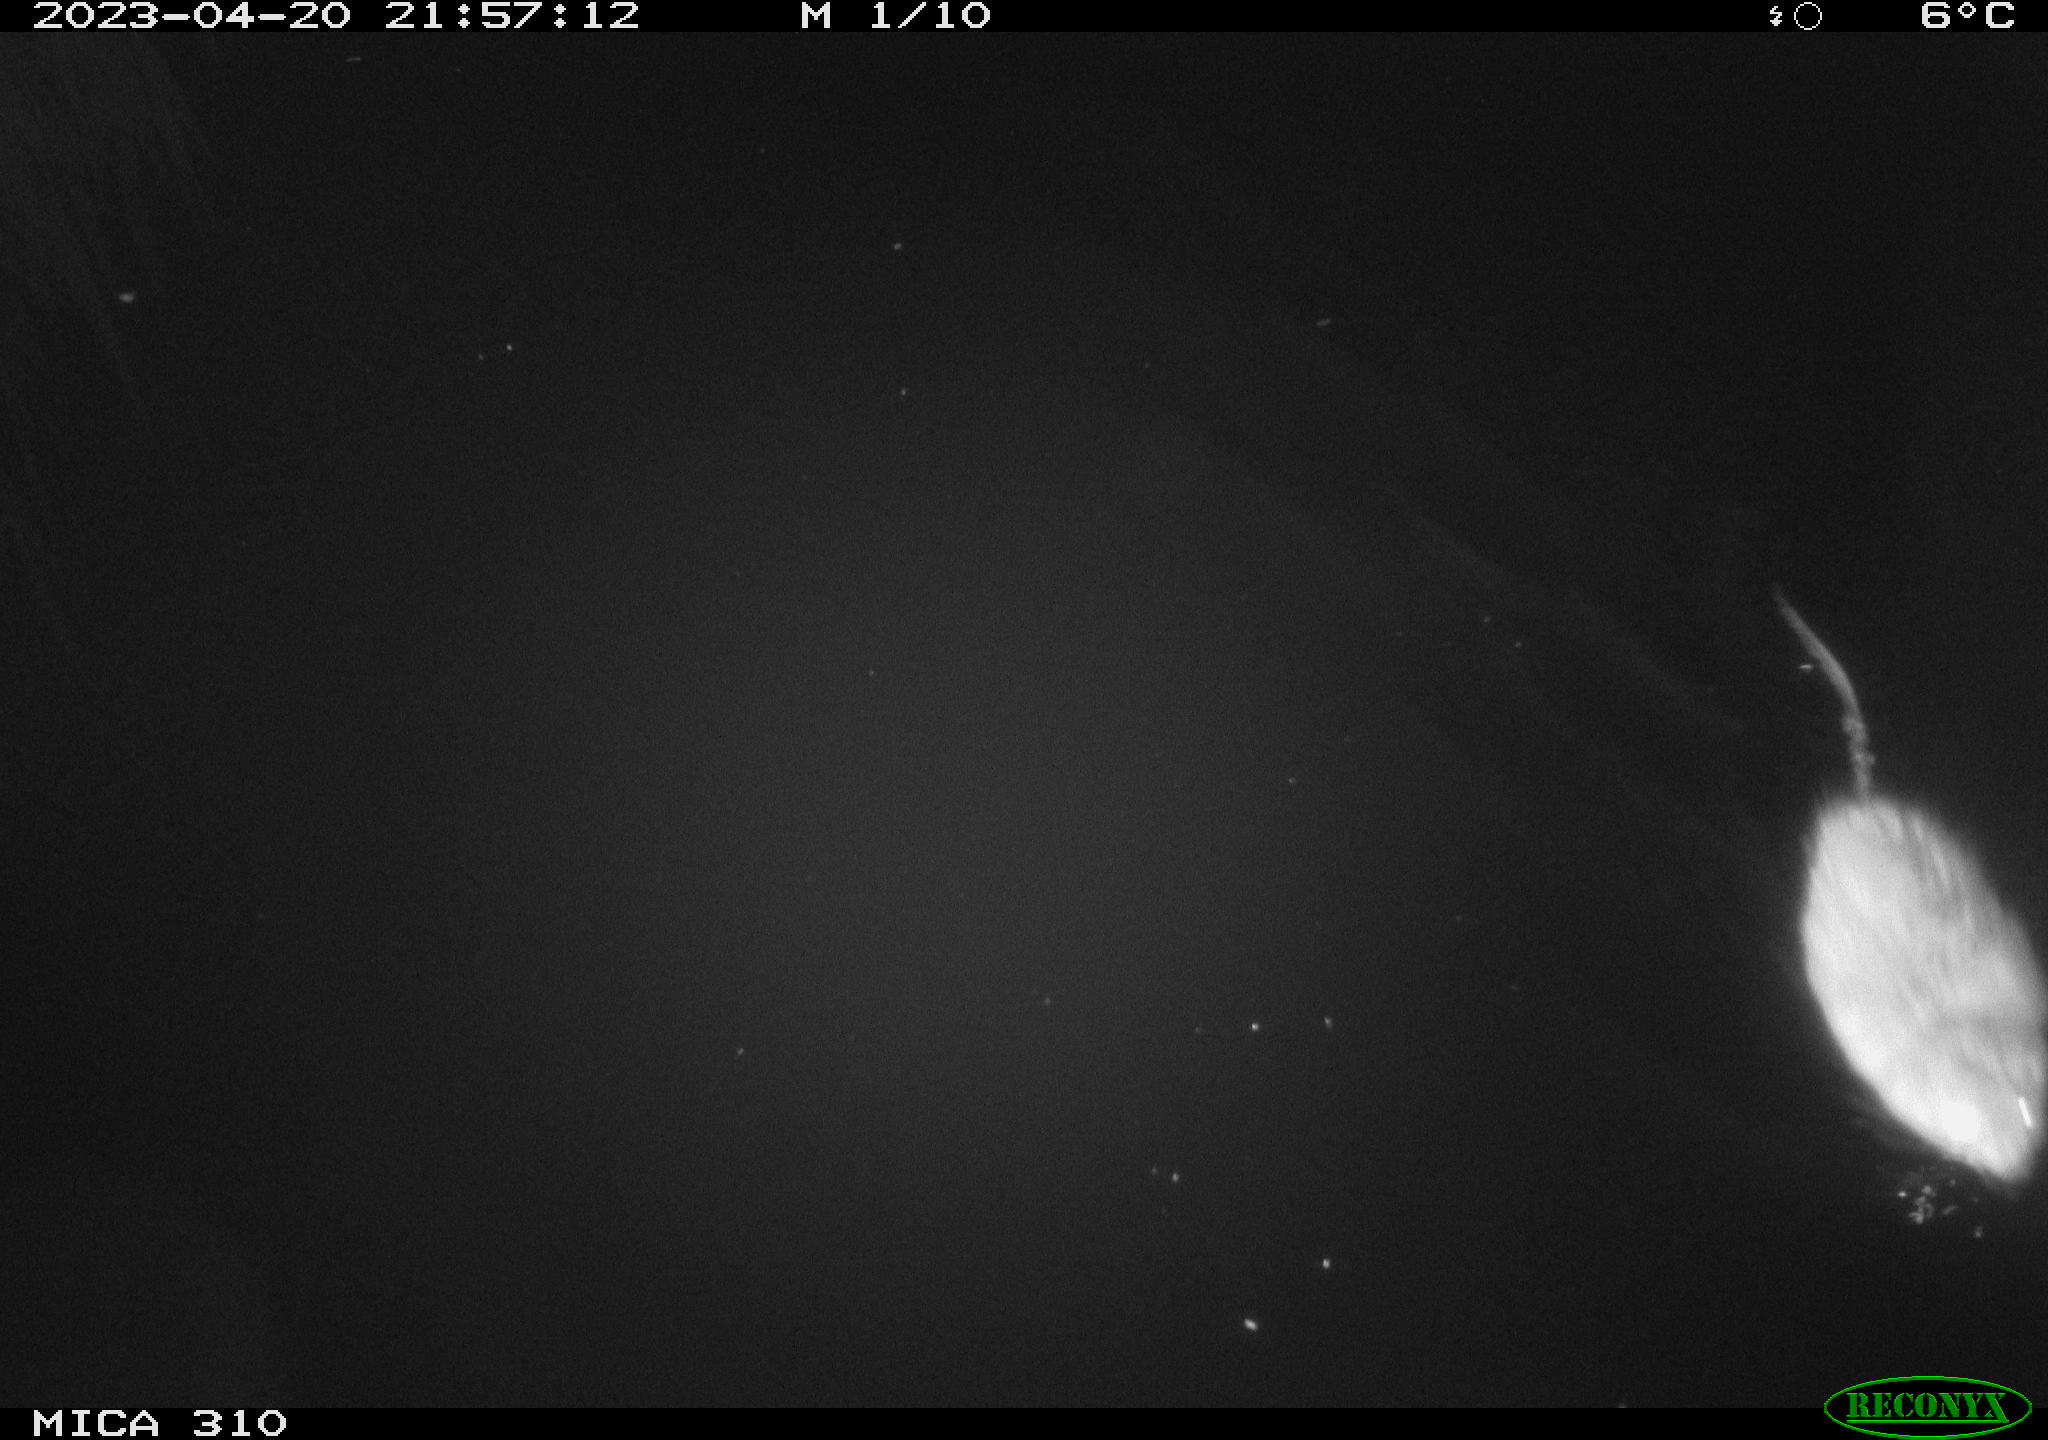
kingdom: Animalia
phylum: Chordata
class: Mammalia
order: Rodentia
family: Cricetidae
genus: Ondatra
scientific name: Ondatra zibethicus
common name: Muskrat
